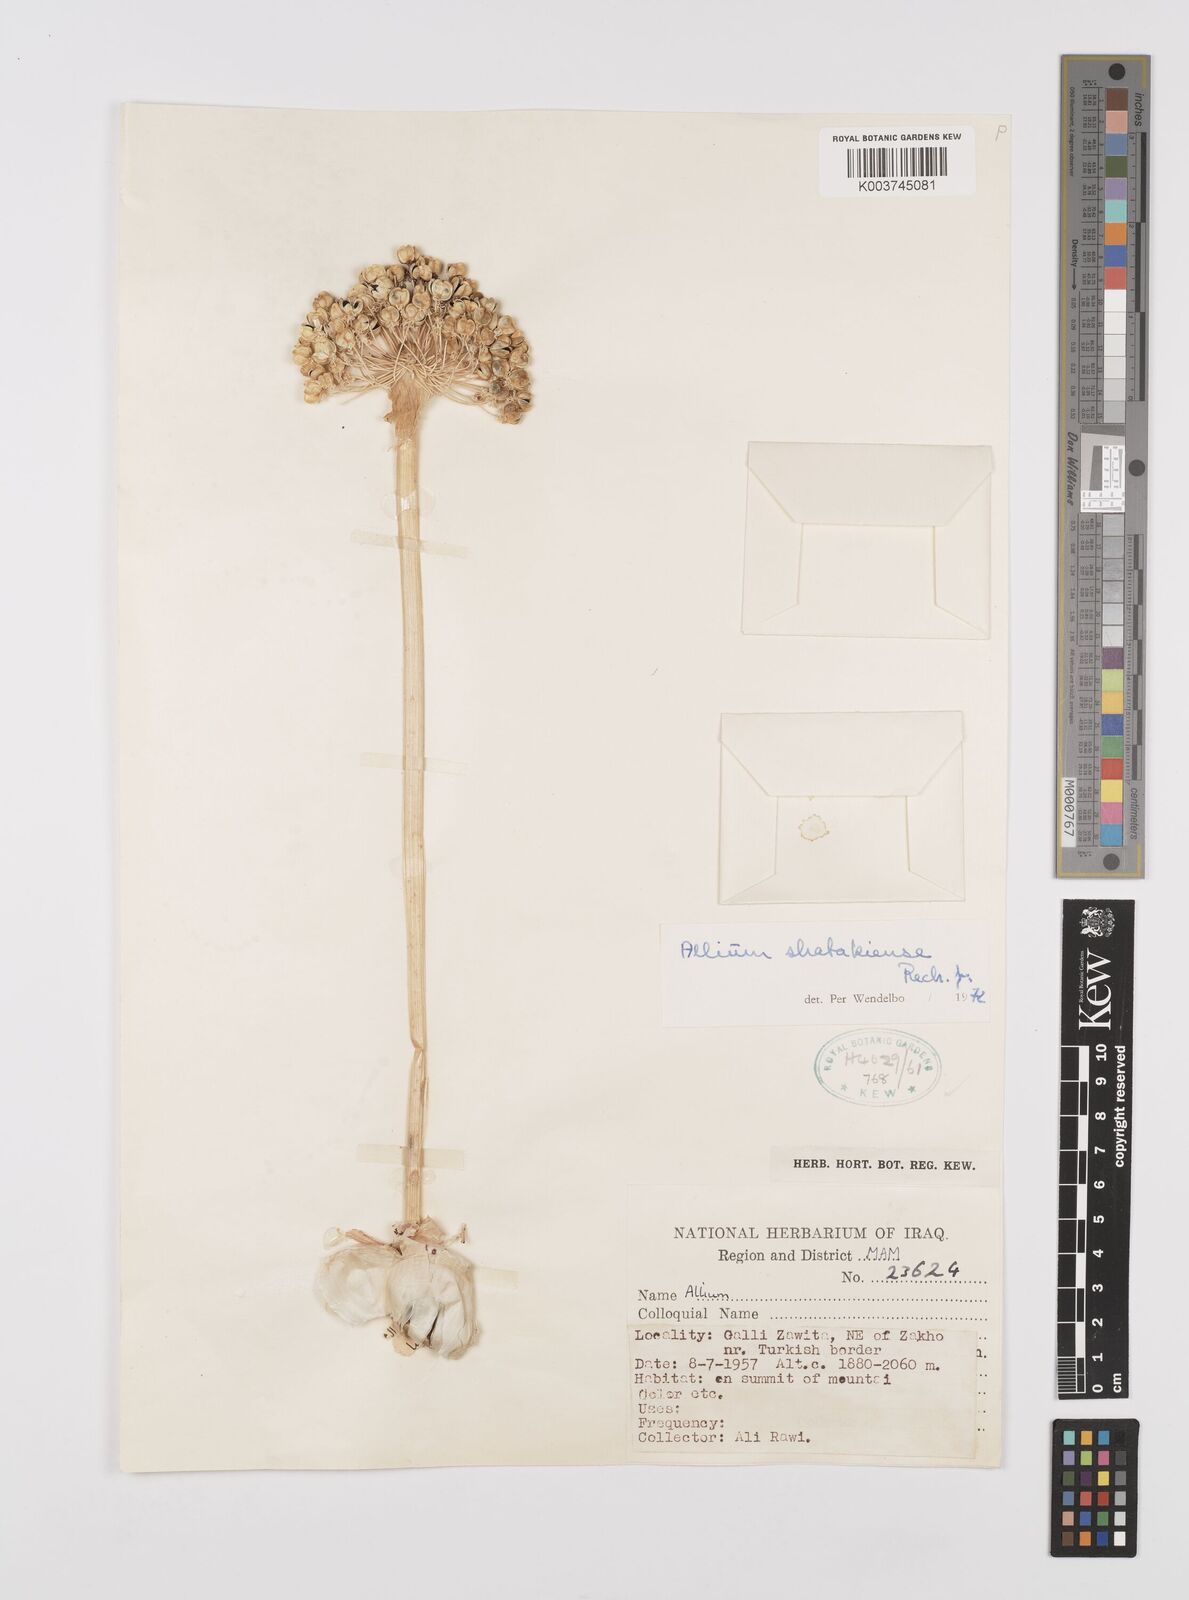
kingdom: Plantae
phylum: Tracheophyta
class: Liliopsida
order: Asparagales
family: Amaryllidaceae
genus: Allium
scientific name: Allium shatakiense
